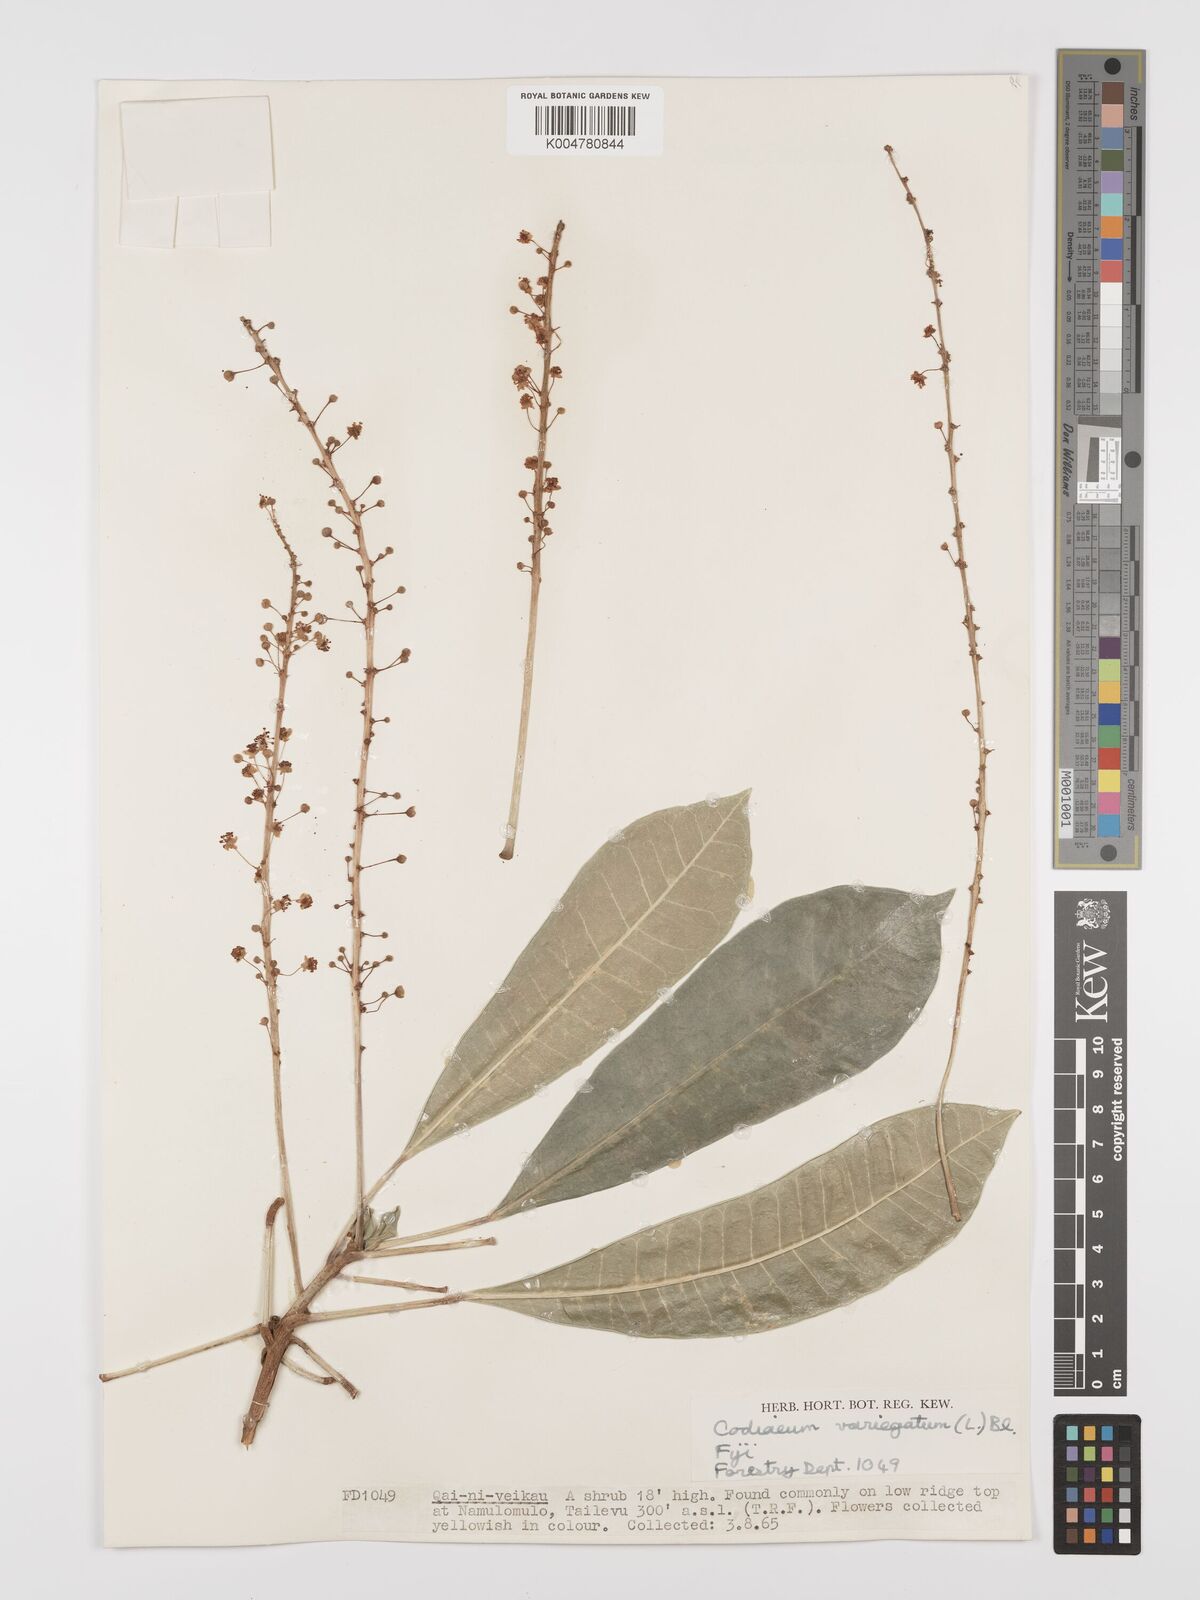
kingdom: Plantae
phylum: Tracheophyta
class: Magnoliopsida
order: Malpighiales
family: Euphorbiaceae
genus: Codiaeum
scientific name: Codiaeum variegatum
